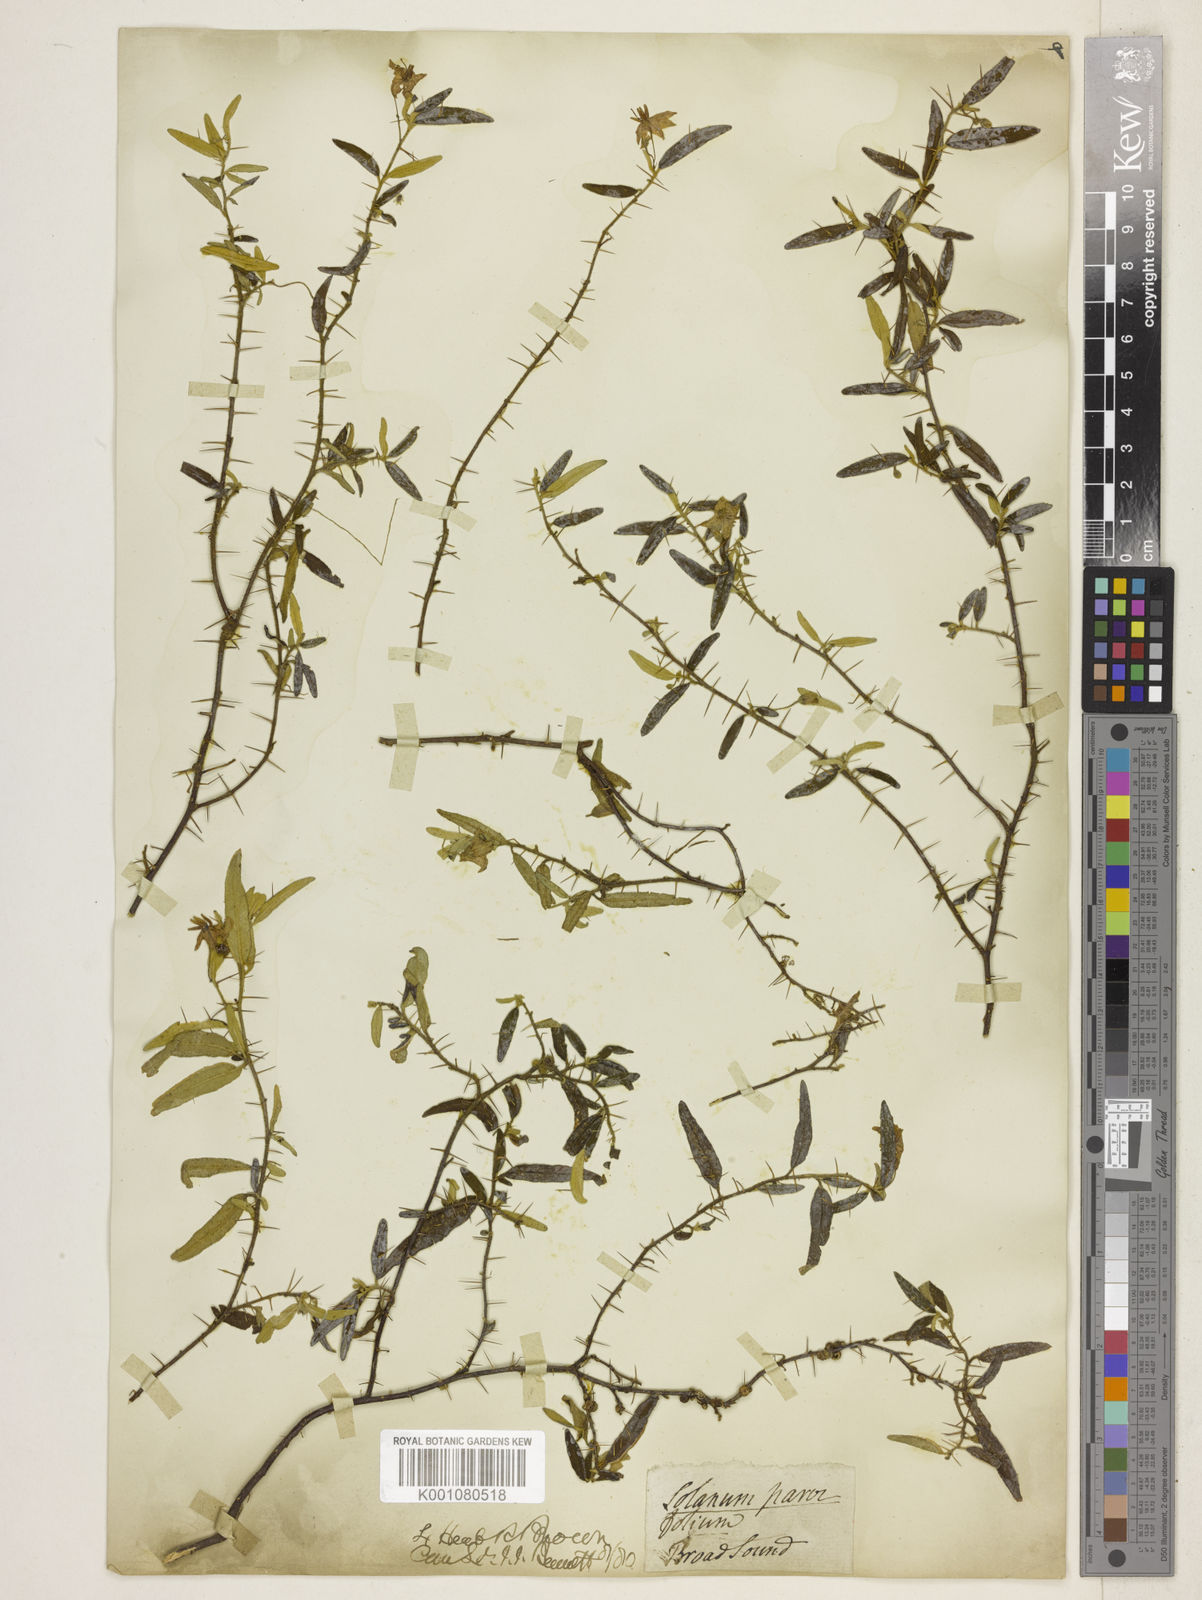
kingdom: Plantae
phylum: Tracheophyta
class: Magnoliopsida
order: Solanales
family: Solanaceae
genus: Solanum
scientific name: Solanum parvifolium
